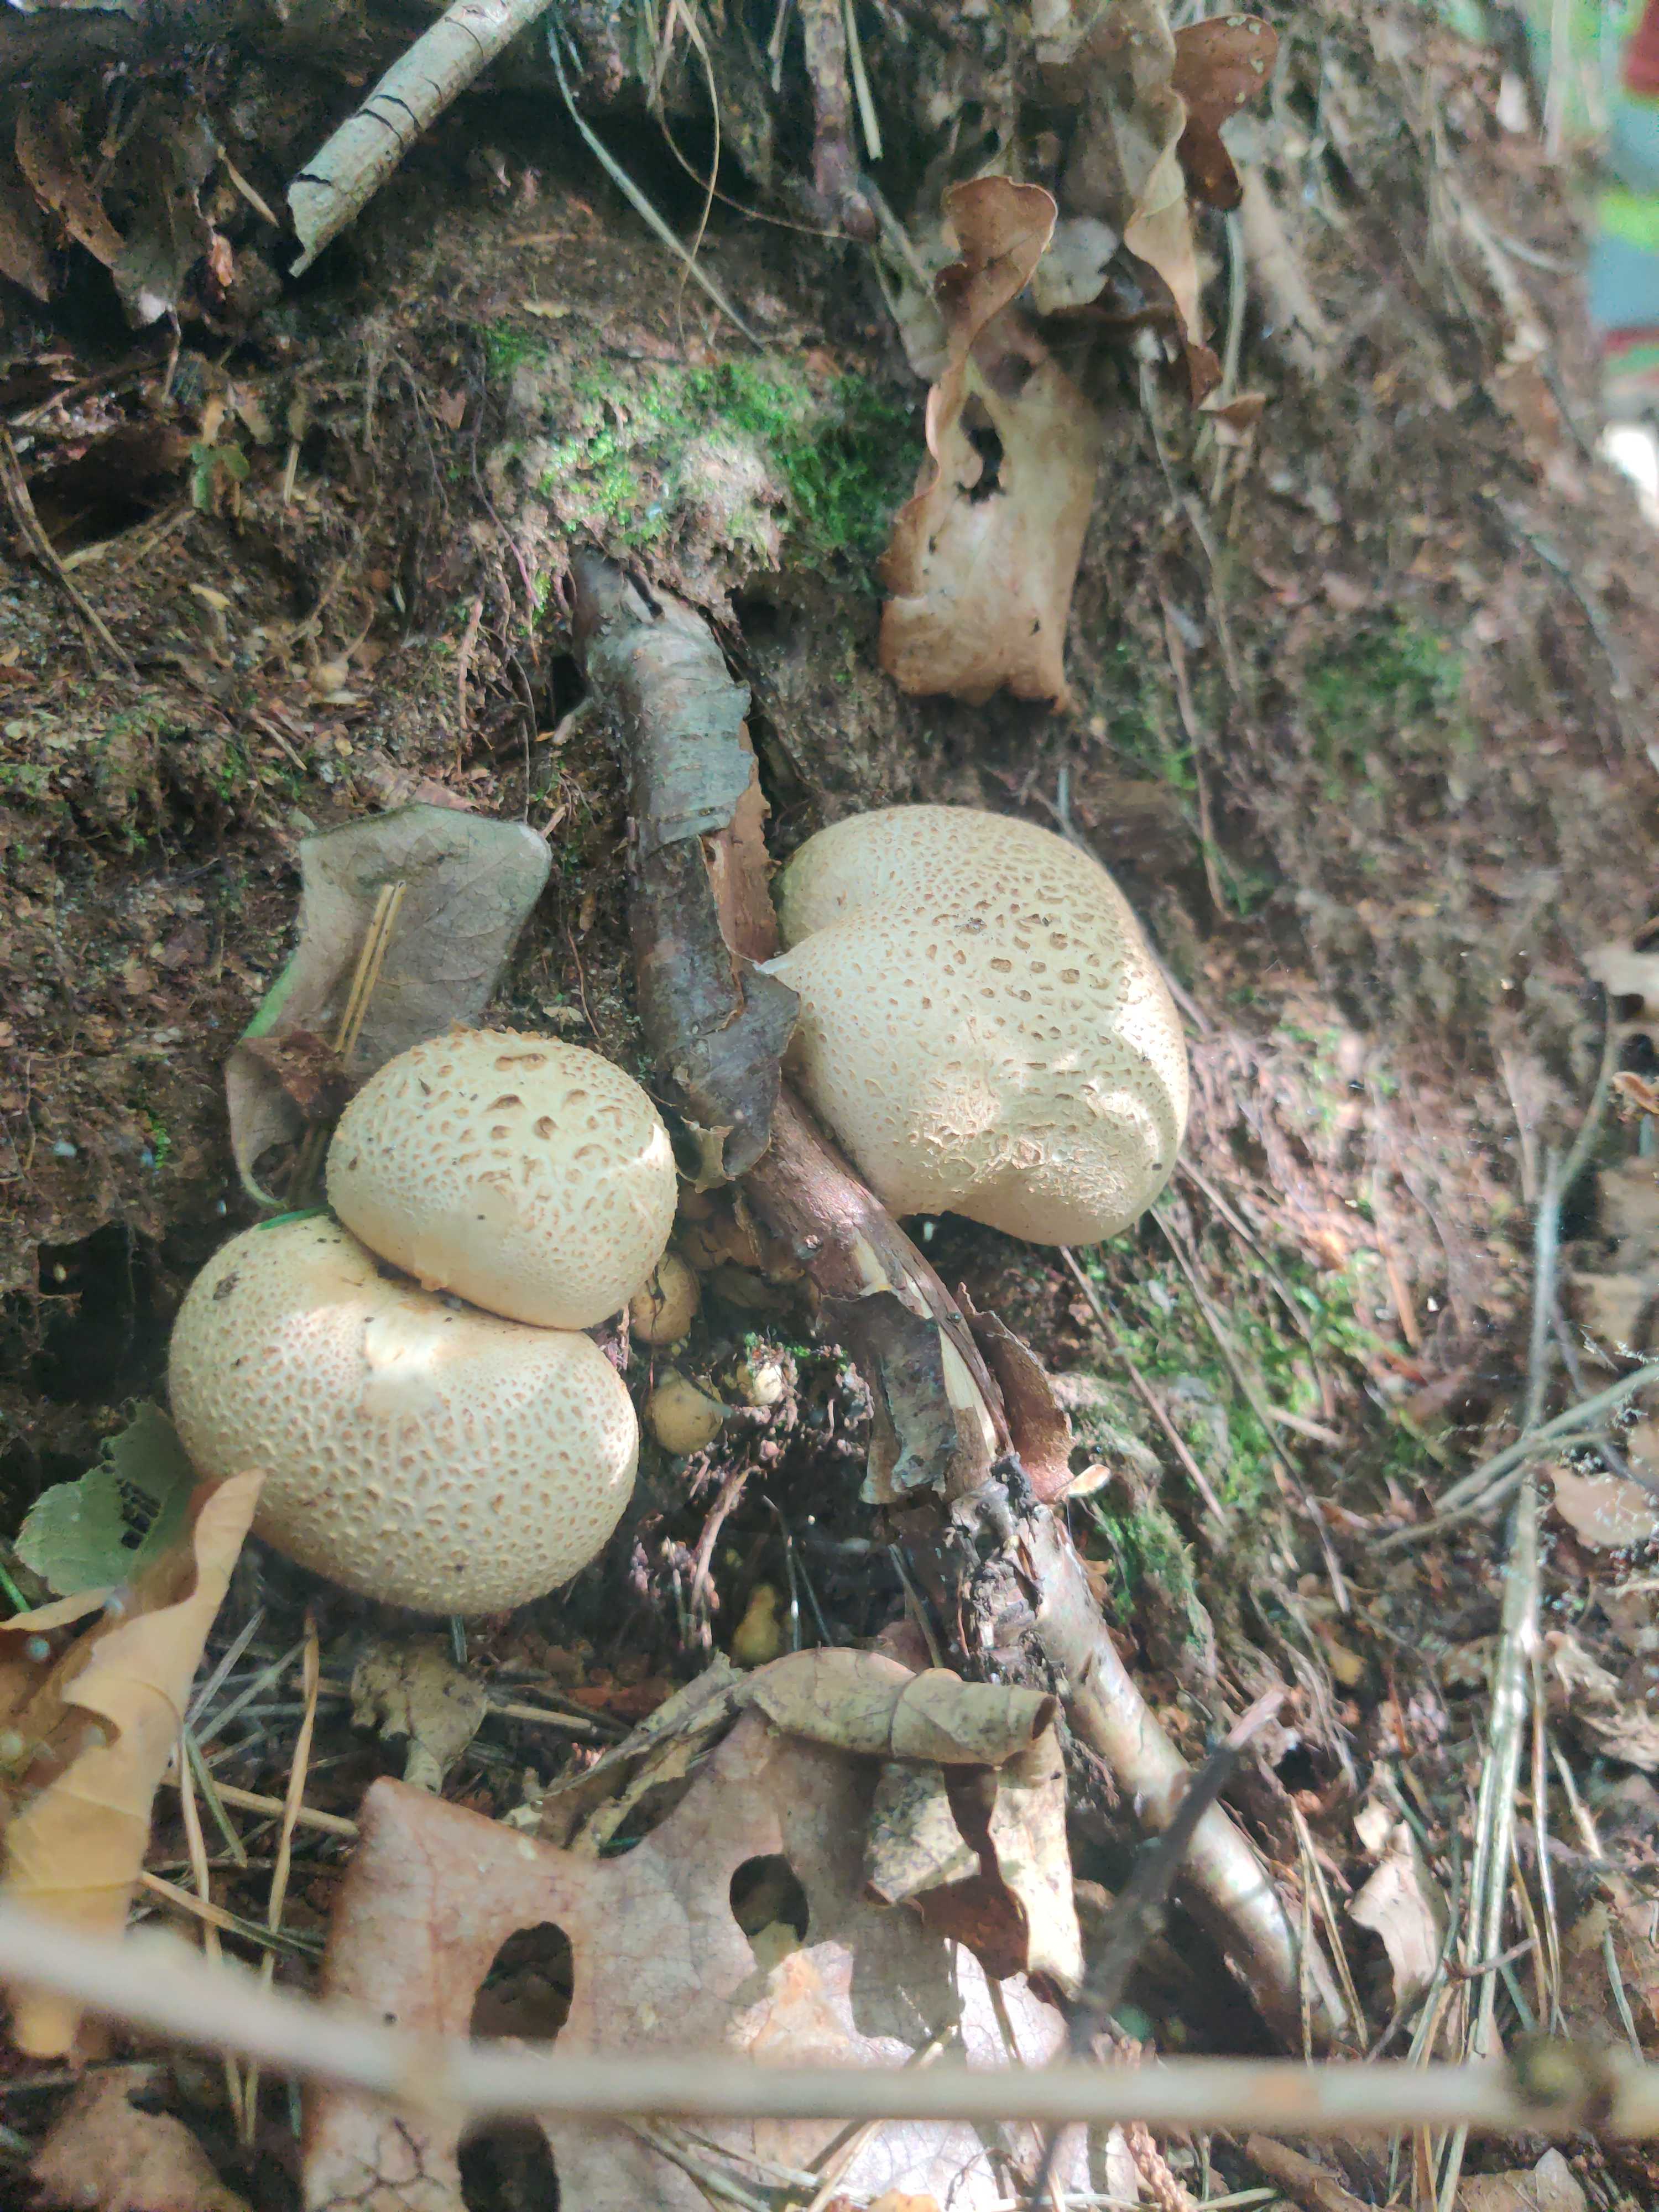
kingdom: Fungi
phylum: Basidiomycota
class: Agaricomycetes
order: Boletales
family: Sclerodermataceae
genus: Scleroderma
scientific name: Scleroderma citrinum
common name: almindelig bruskbold
